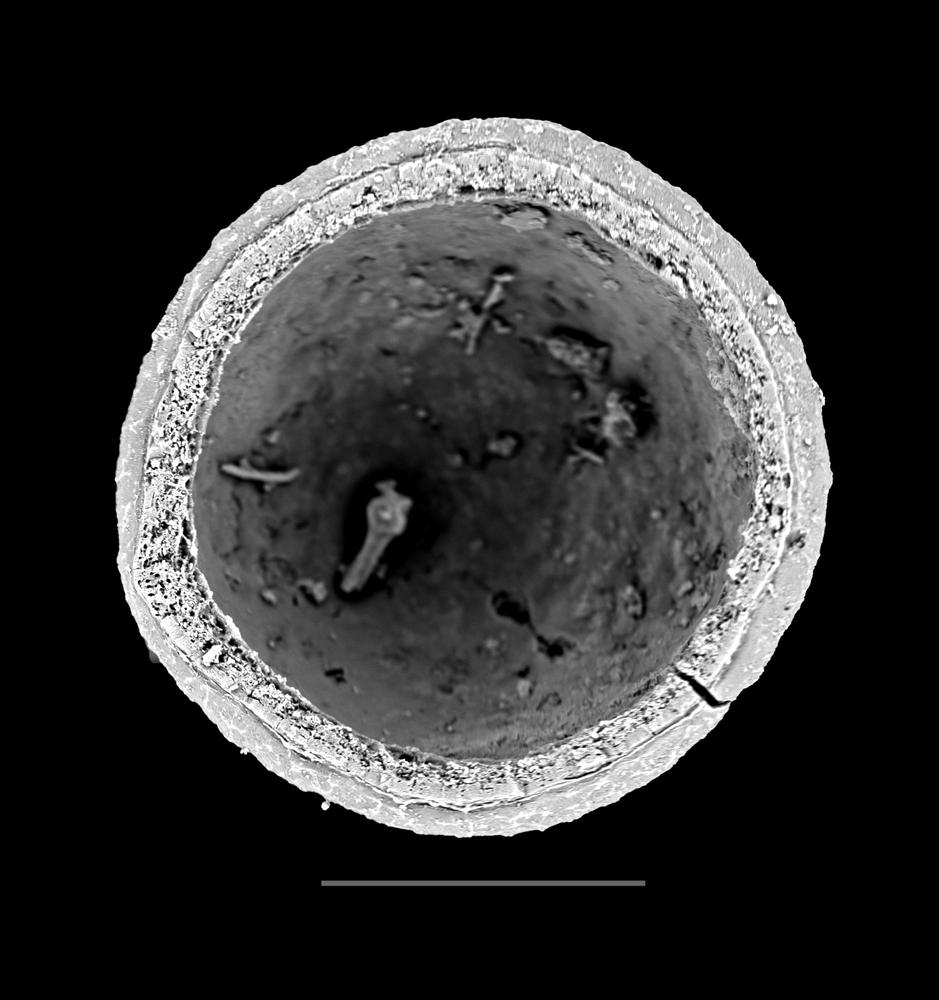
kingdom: Animalia
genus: Vikisphaera
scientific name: Vikisphaera
